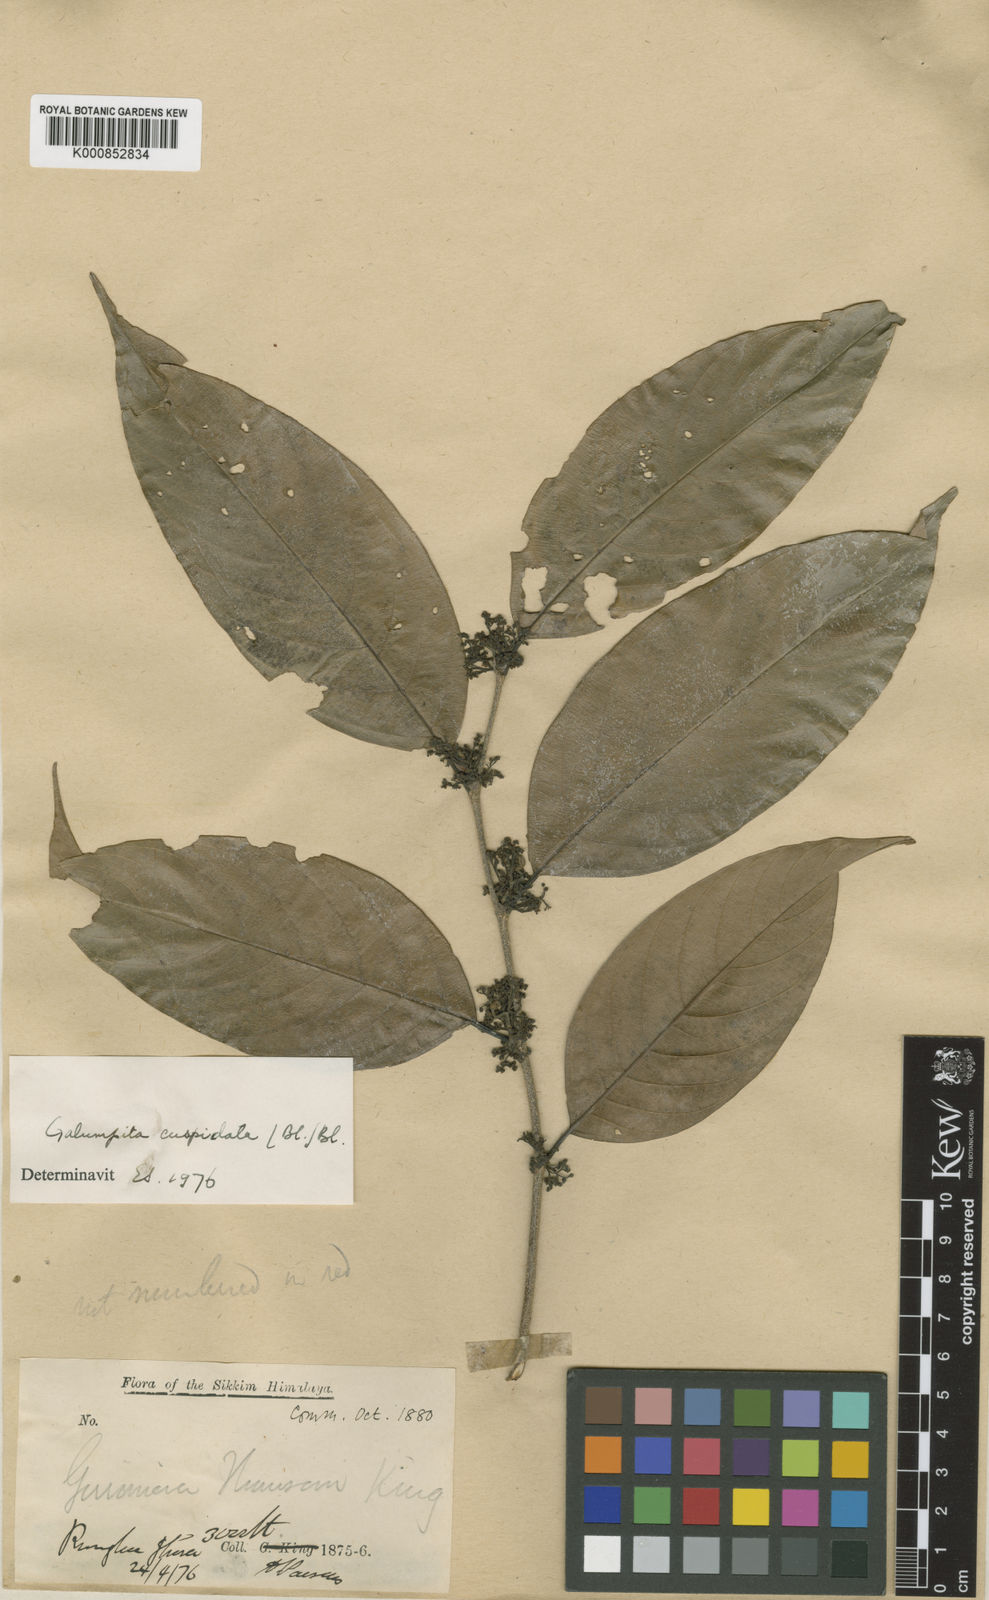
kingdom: Plantae
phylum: Tracheophyta
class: Magnoliopsida
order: Rosales
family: Cannabaceae
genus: Aphananthe
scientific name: Aphananthe cuspidata
